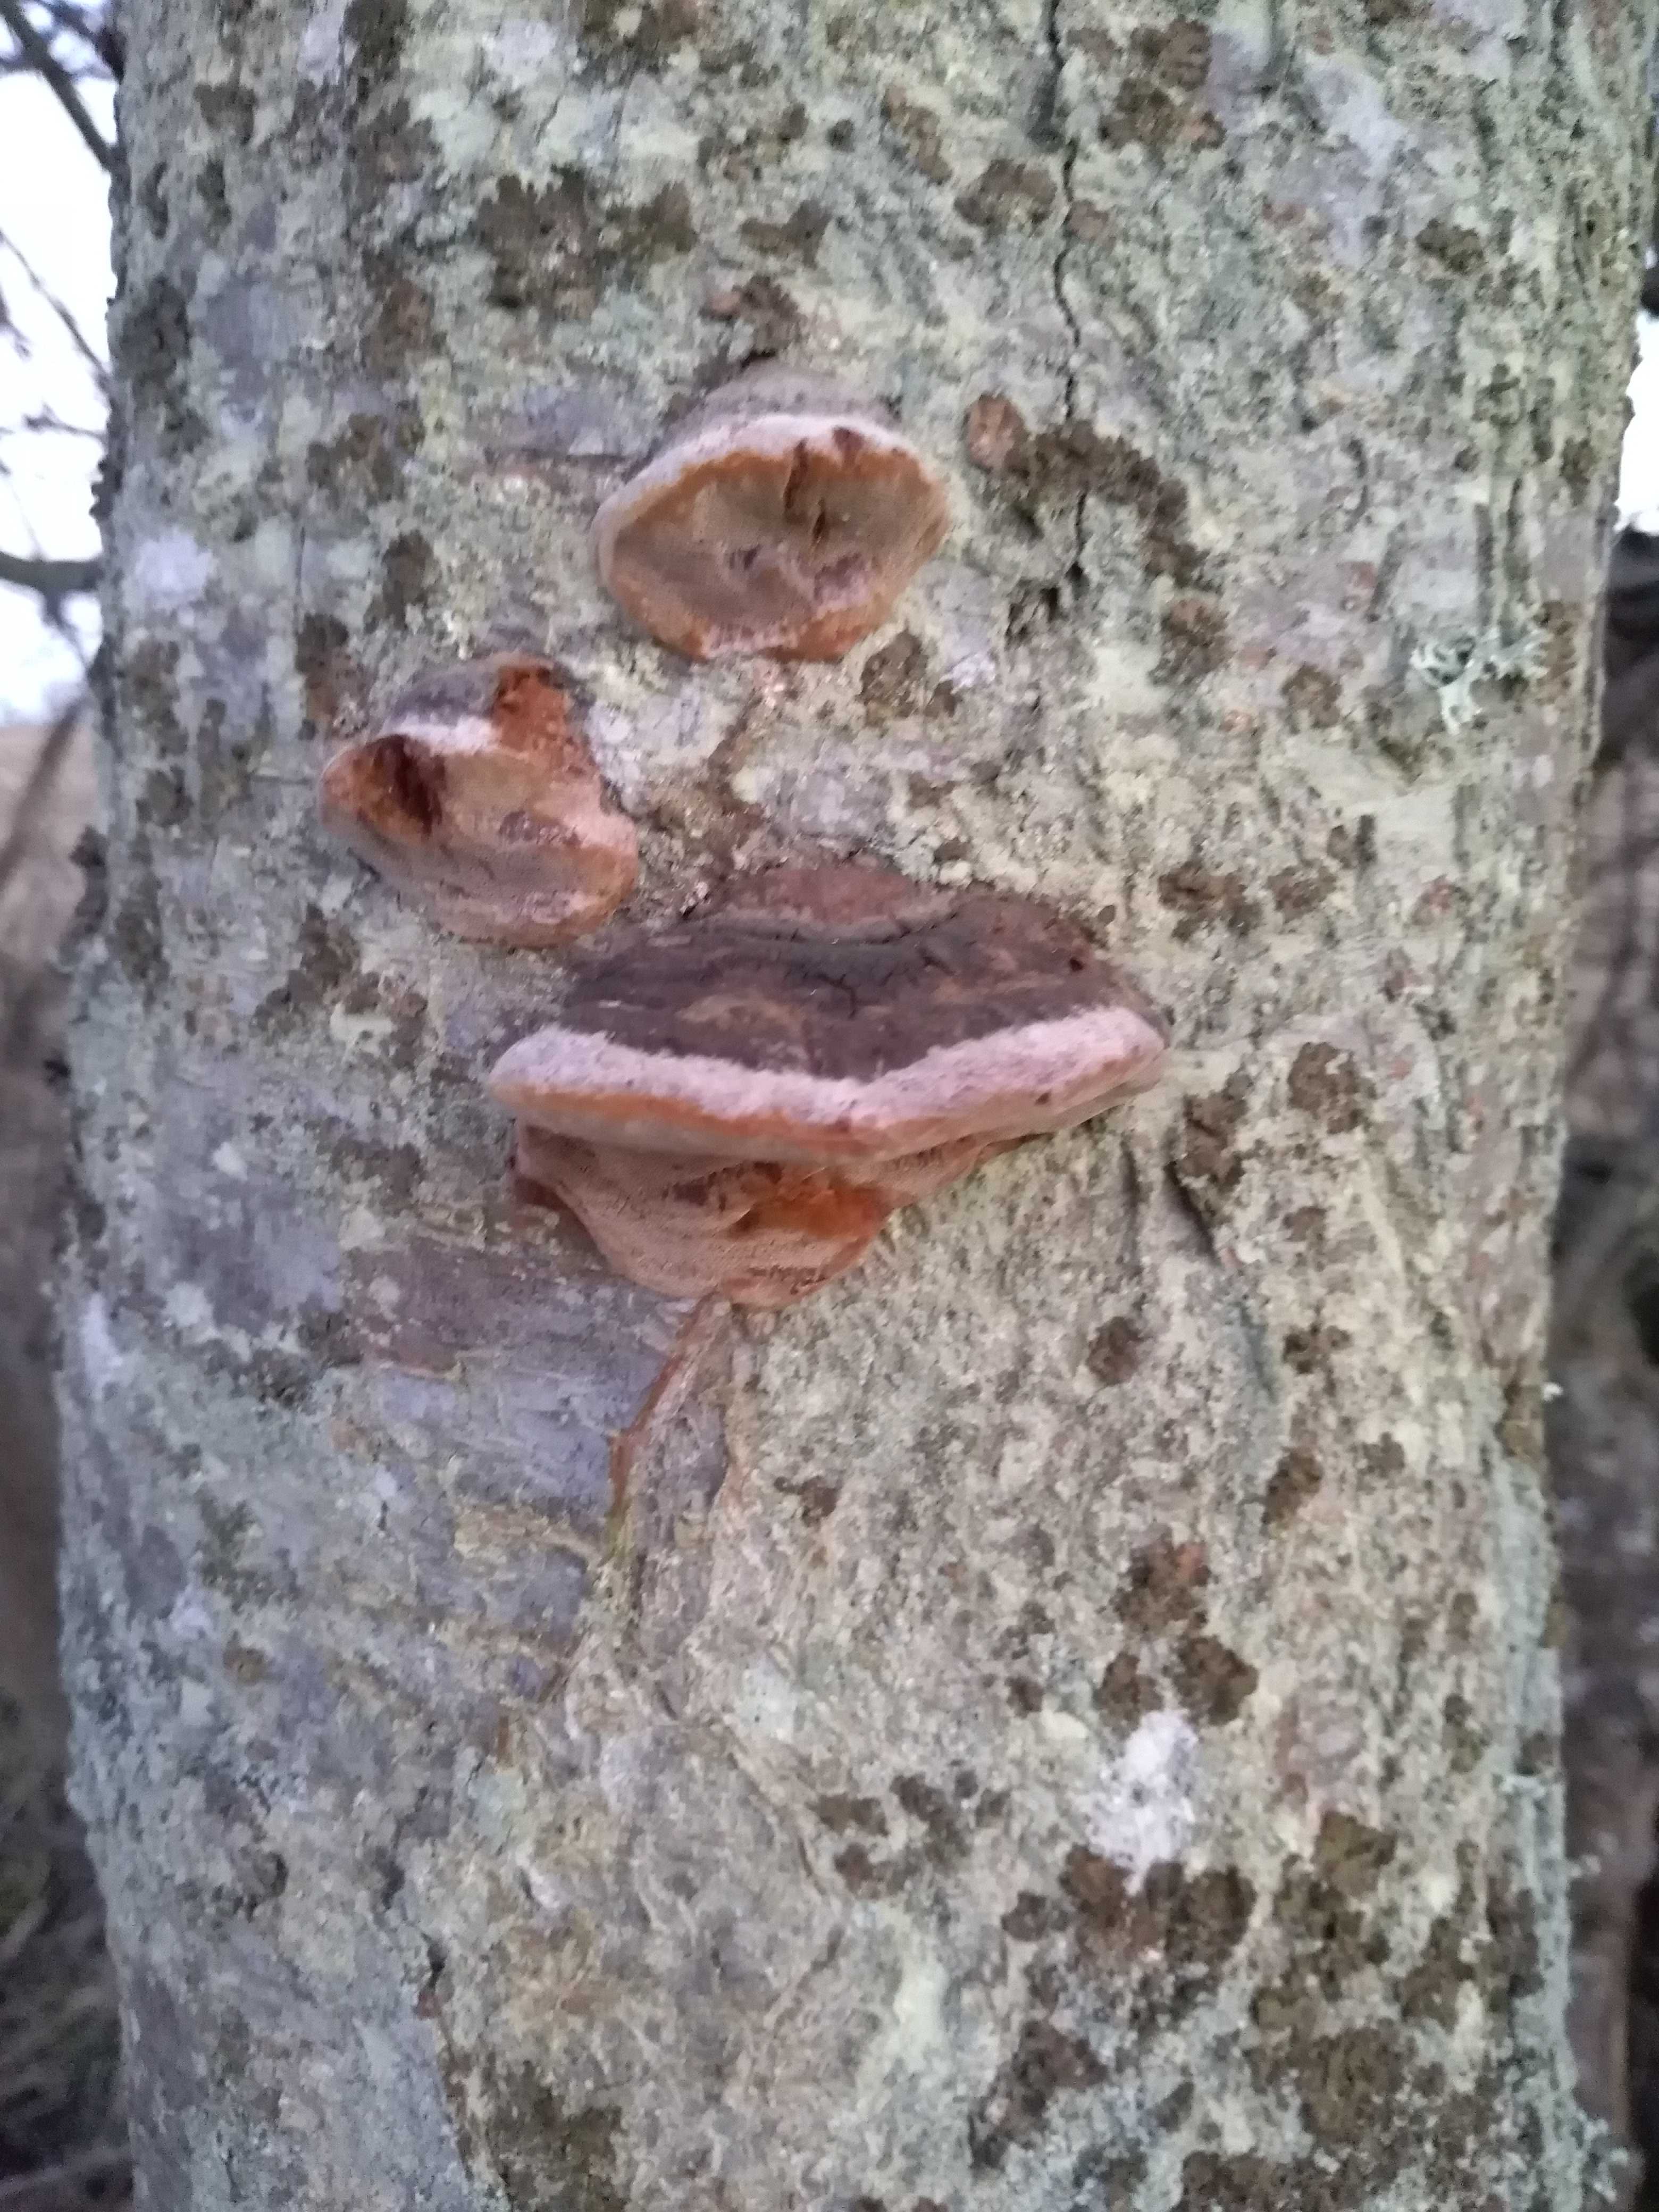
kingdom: Fungi
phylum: Basidiomycota
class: Agaricomycetes
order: Hymenochaetales
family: Hymenochaetaceae
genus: Phellinus
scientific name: Phellinus pomaceus
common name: blomme-ildporesvamp
